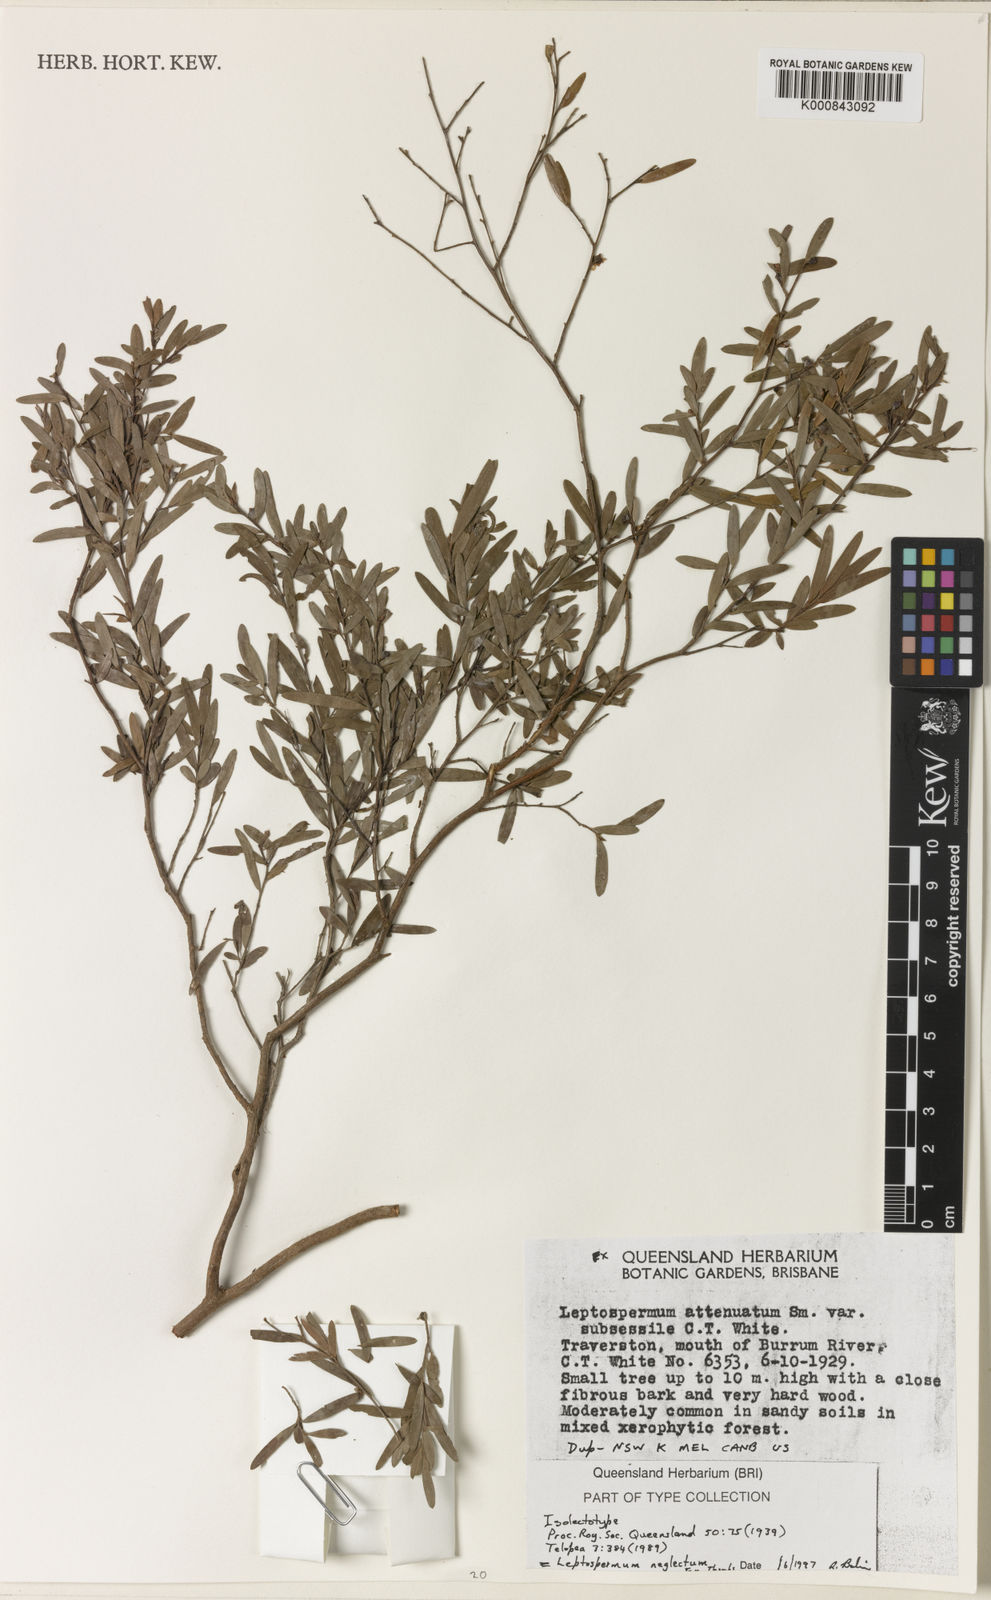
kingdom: Plantae
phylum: Tracheophyta
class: Magnoliopsida
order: Myrtales
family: Myrtaceae
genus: Leptospermum
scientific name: Leptospermum neglectum
